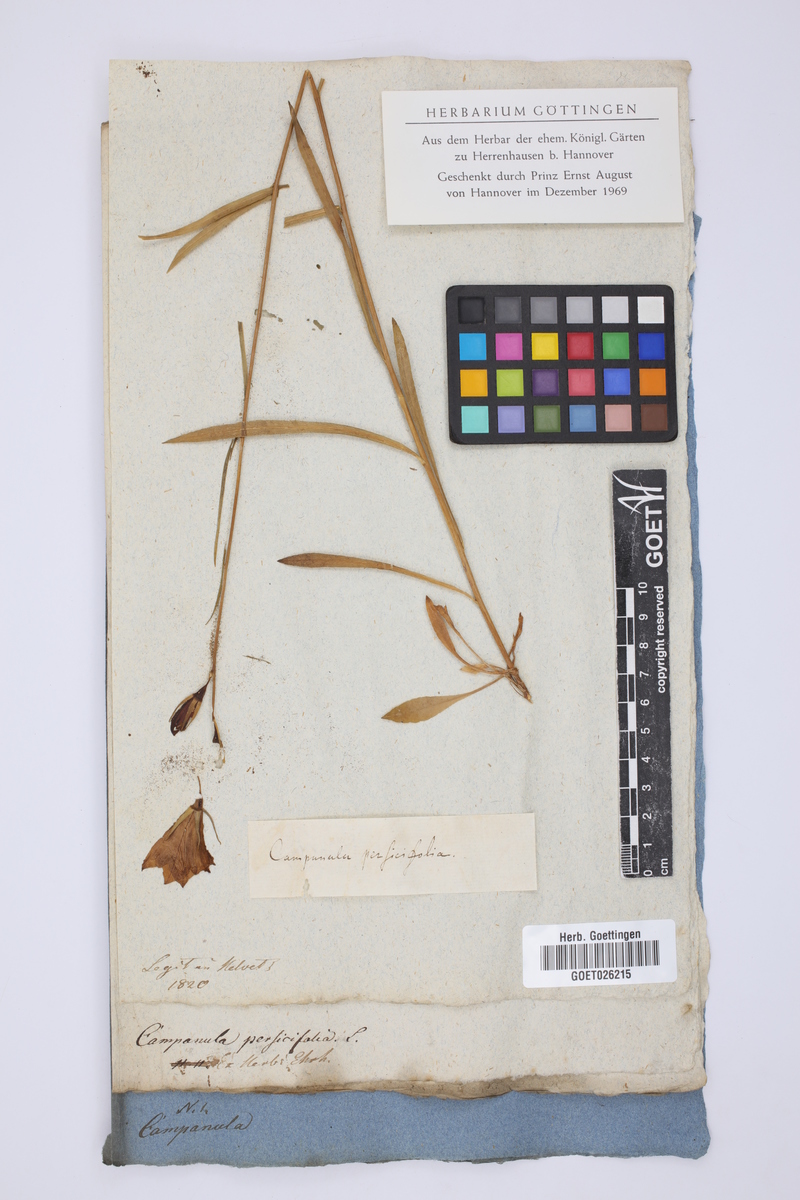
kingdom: Plantae
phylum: Tracheophyta
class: Magnoliopsida
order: Asterales
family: Campanulaceae
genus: Campanula
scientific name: Campanula persicifolia
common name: Peach-leaved bellflower
